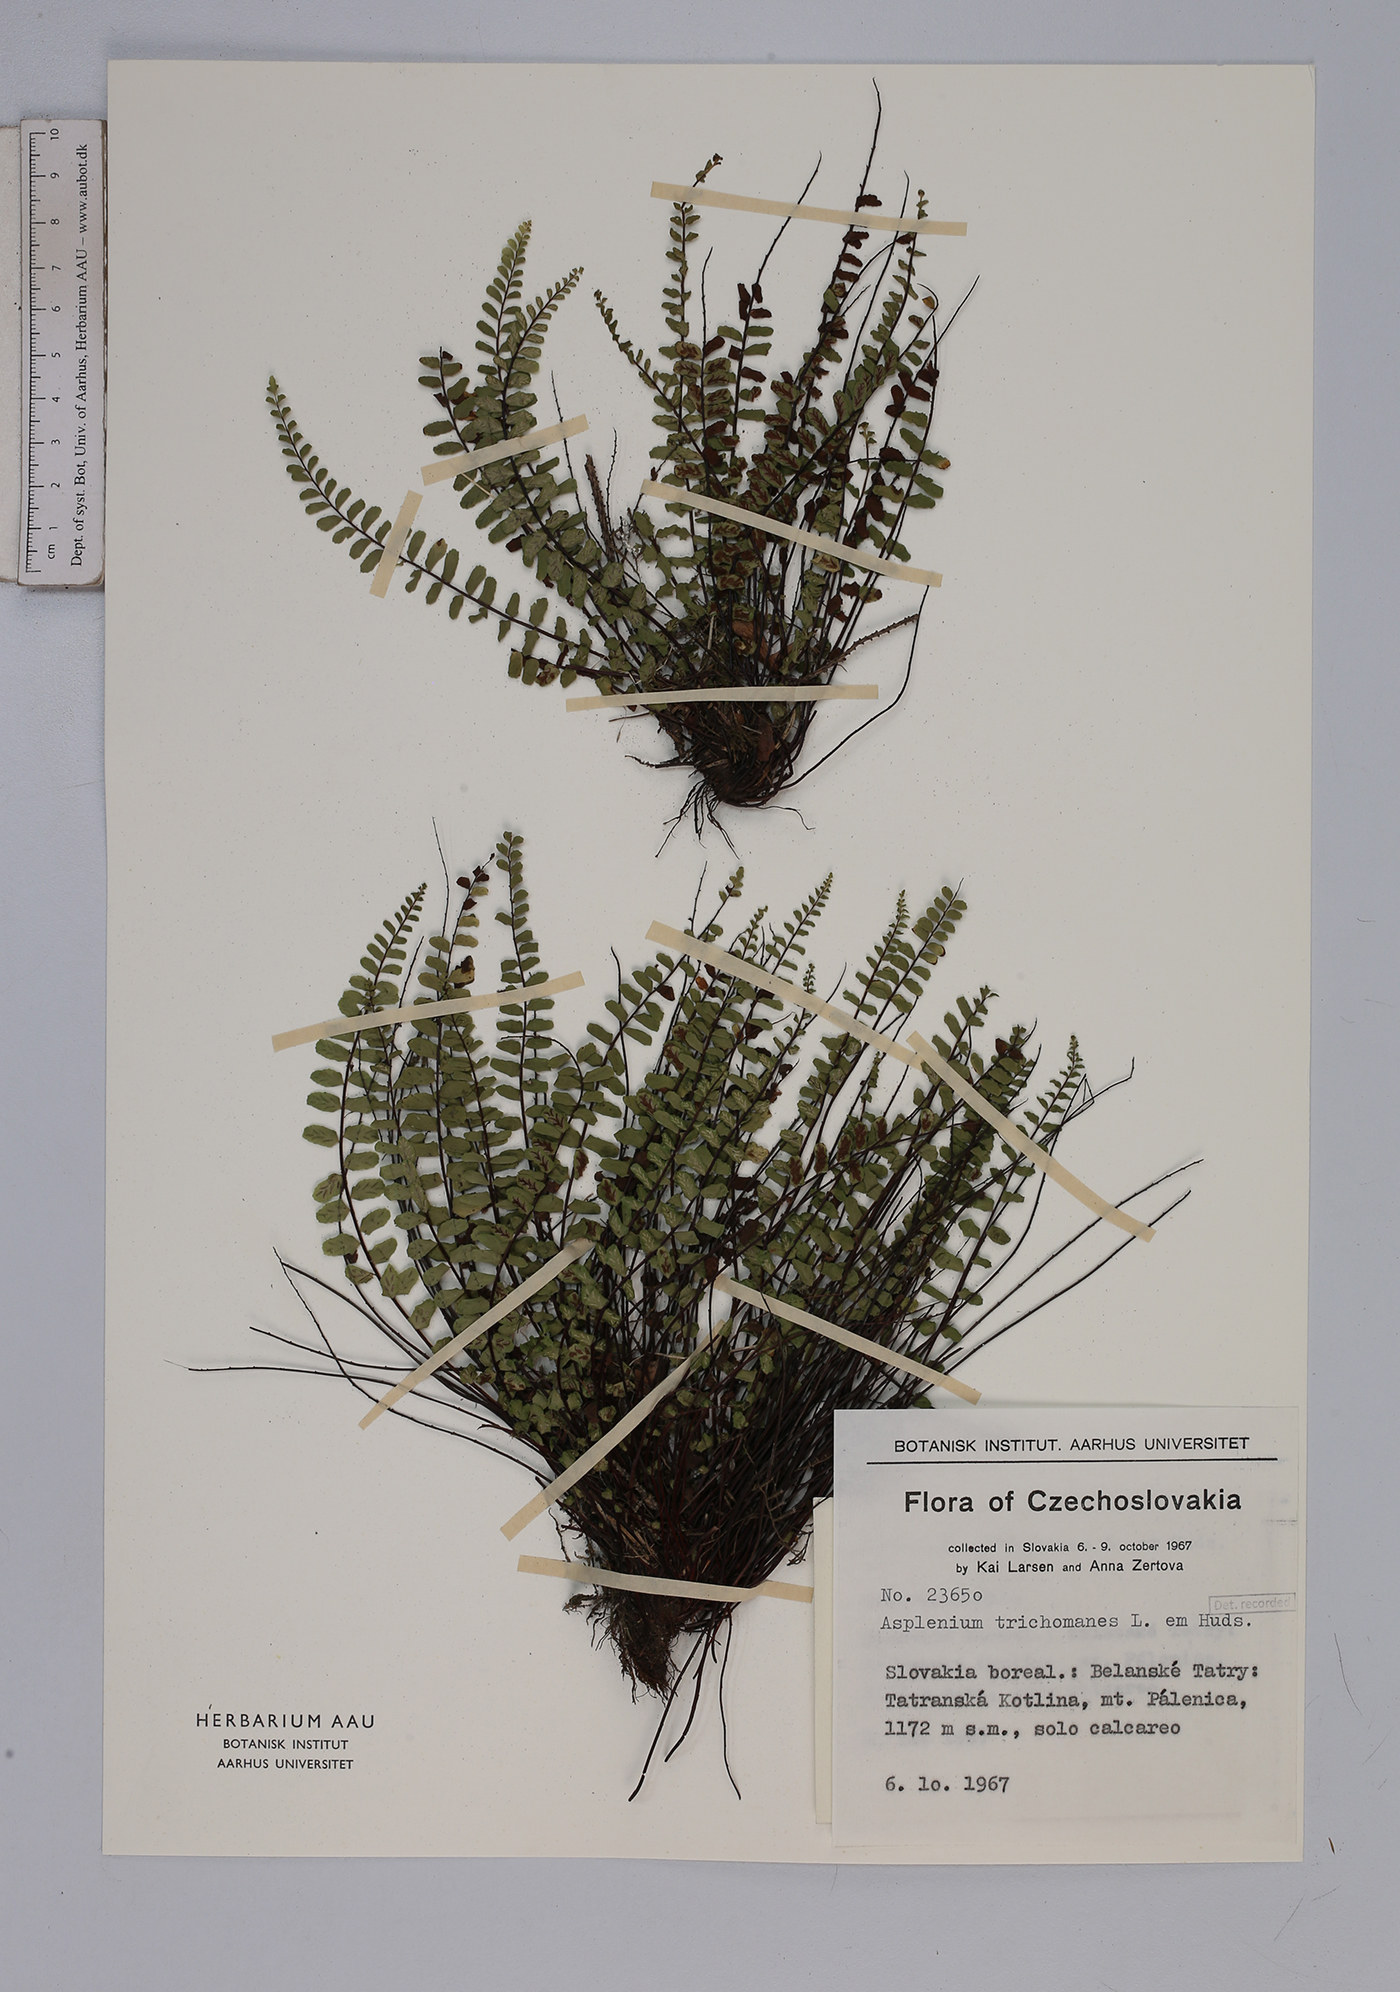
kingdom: Plantae
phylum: Tracheophyta
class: Polypodiopsida
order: Polypodiales
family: Aspleniaceae
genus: Asplenium
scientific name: Asplenium trichomanes
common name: Maidenhair spleenwort
